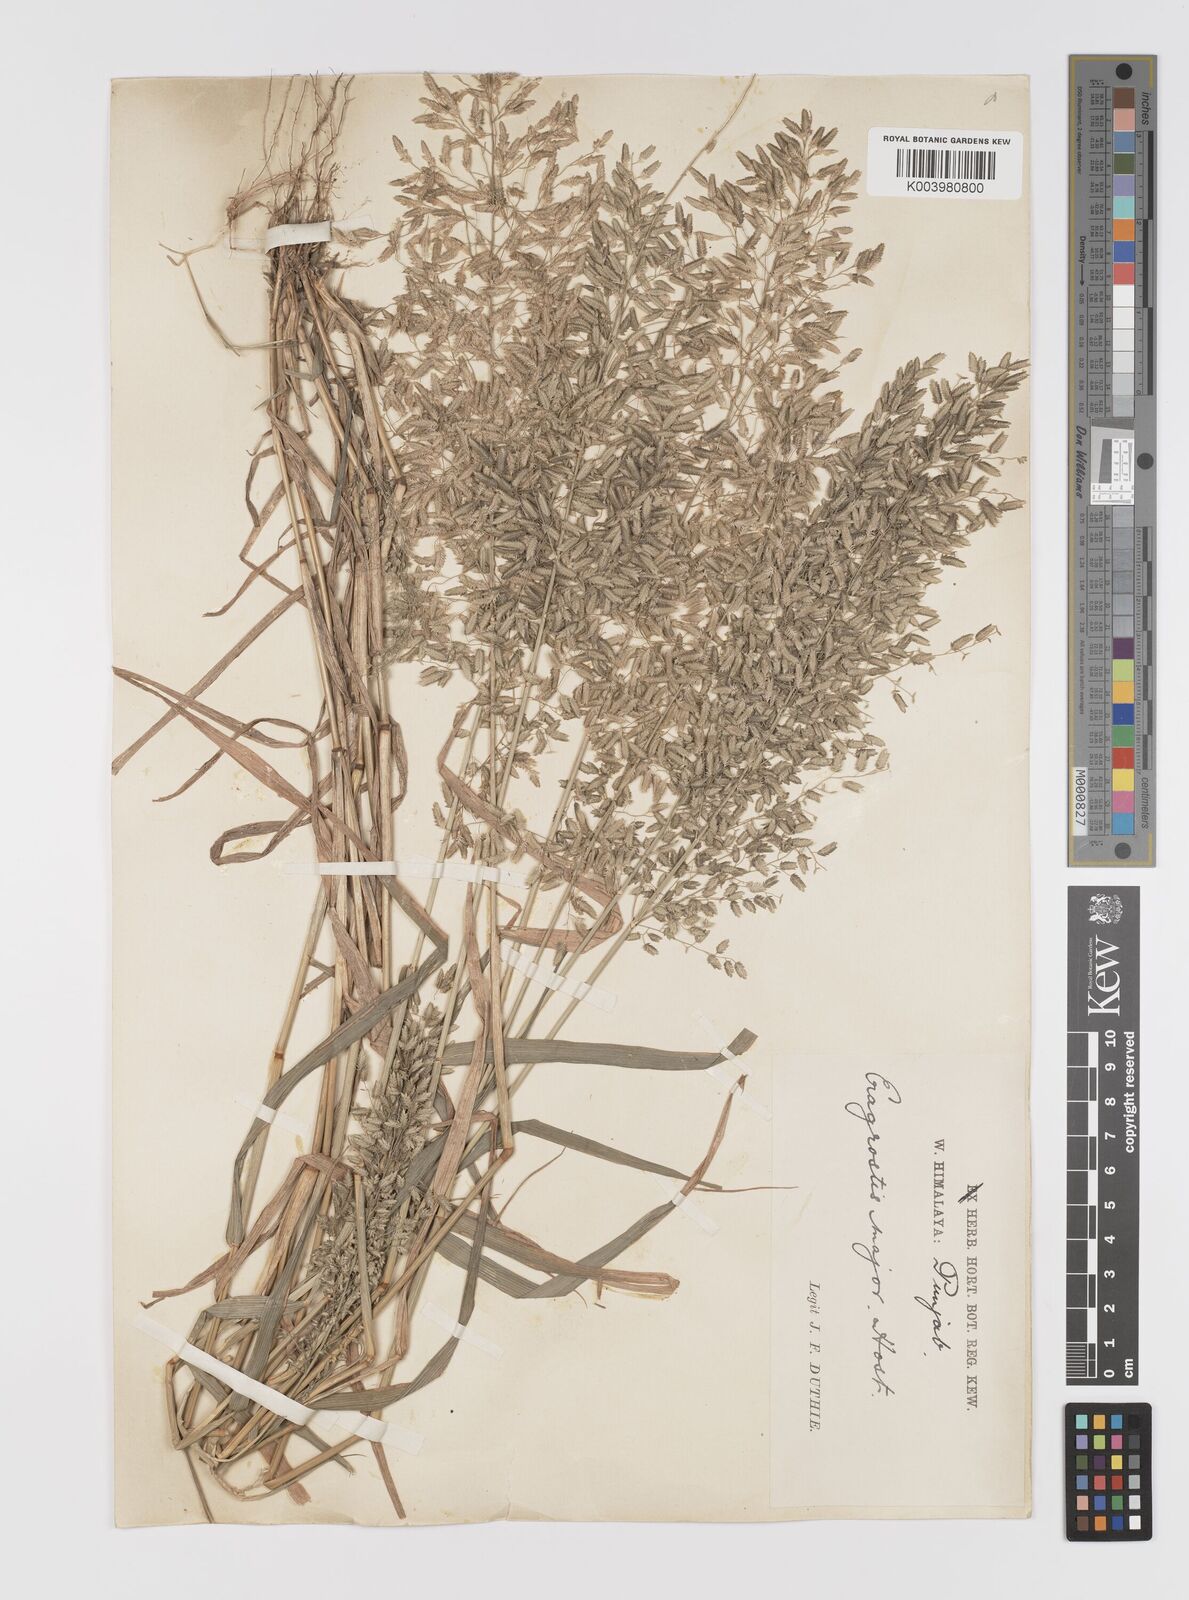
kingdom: Plantae
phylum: Tracheophyta
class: Liliopsida
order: Poales
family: Poaceae
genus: Eragrostis
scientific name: Eragrostis cilianensis
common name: Stinkgrass
